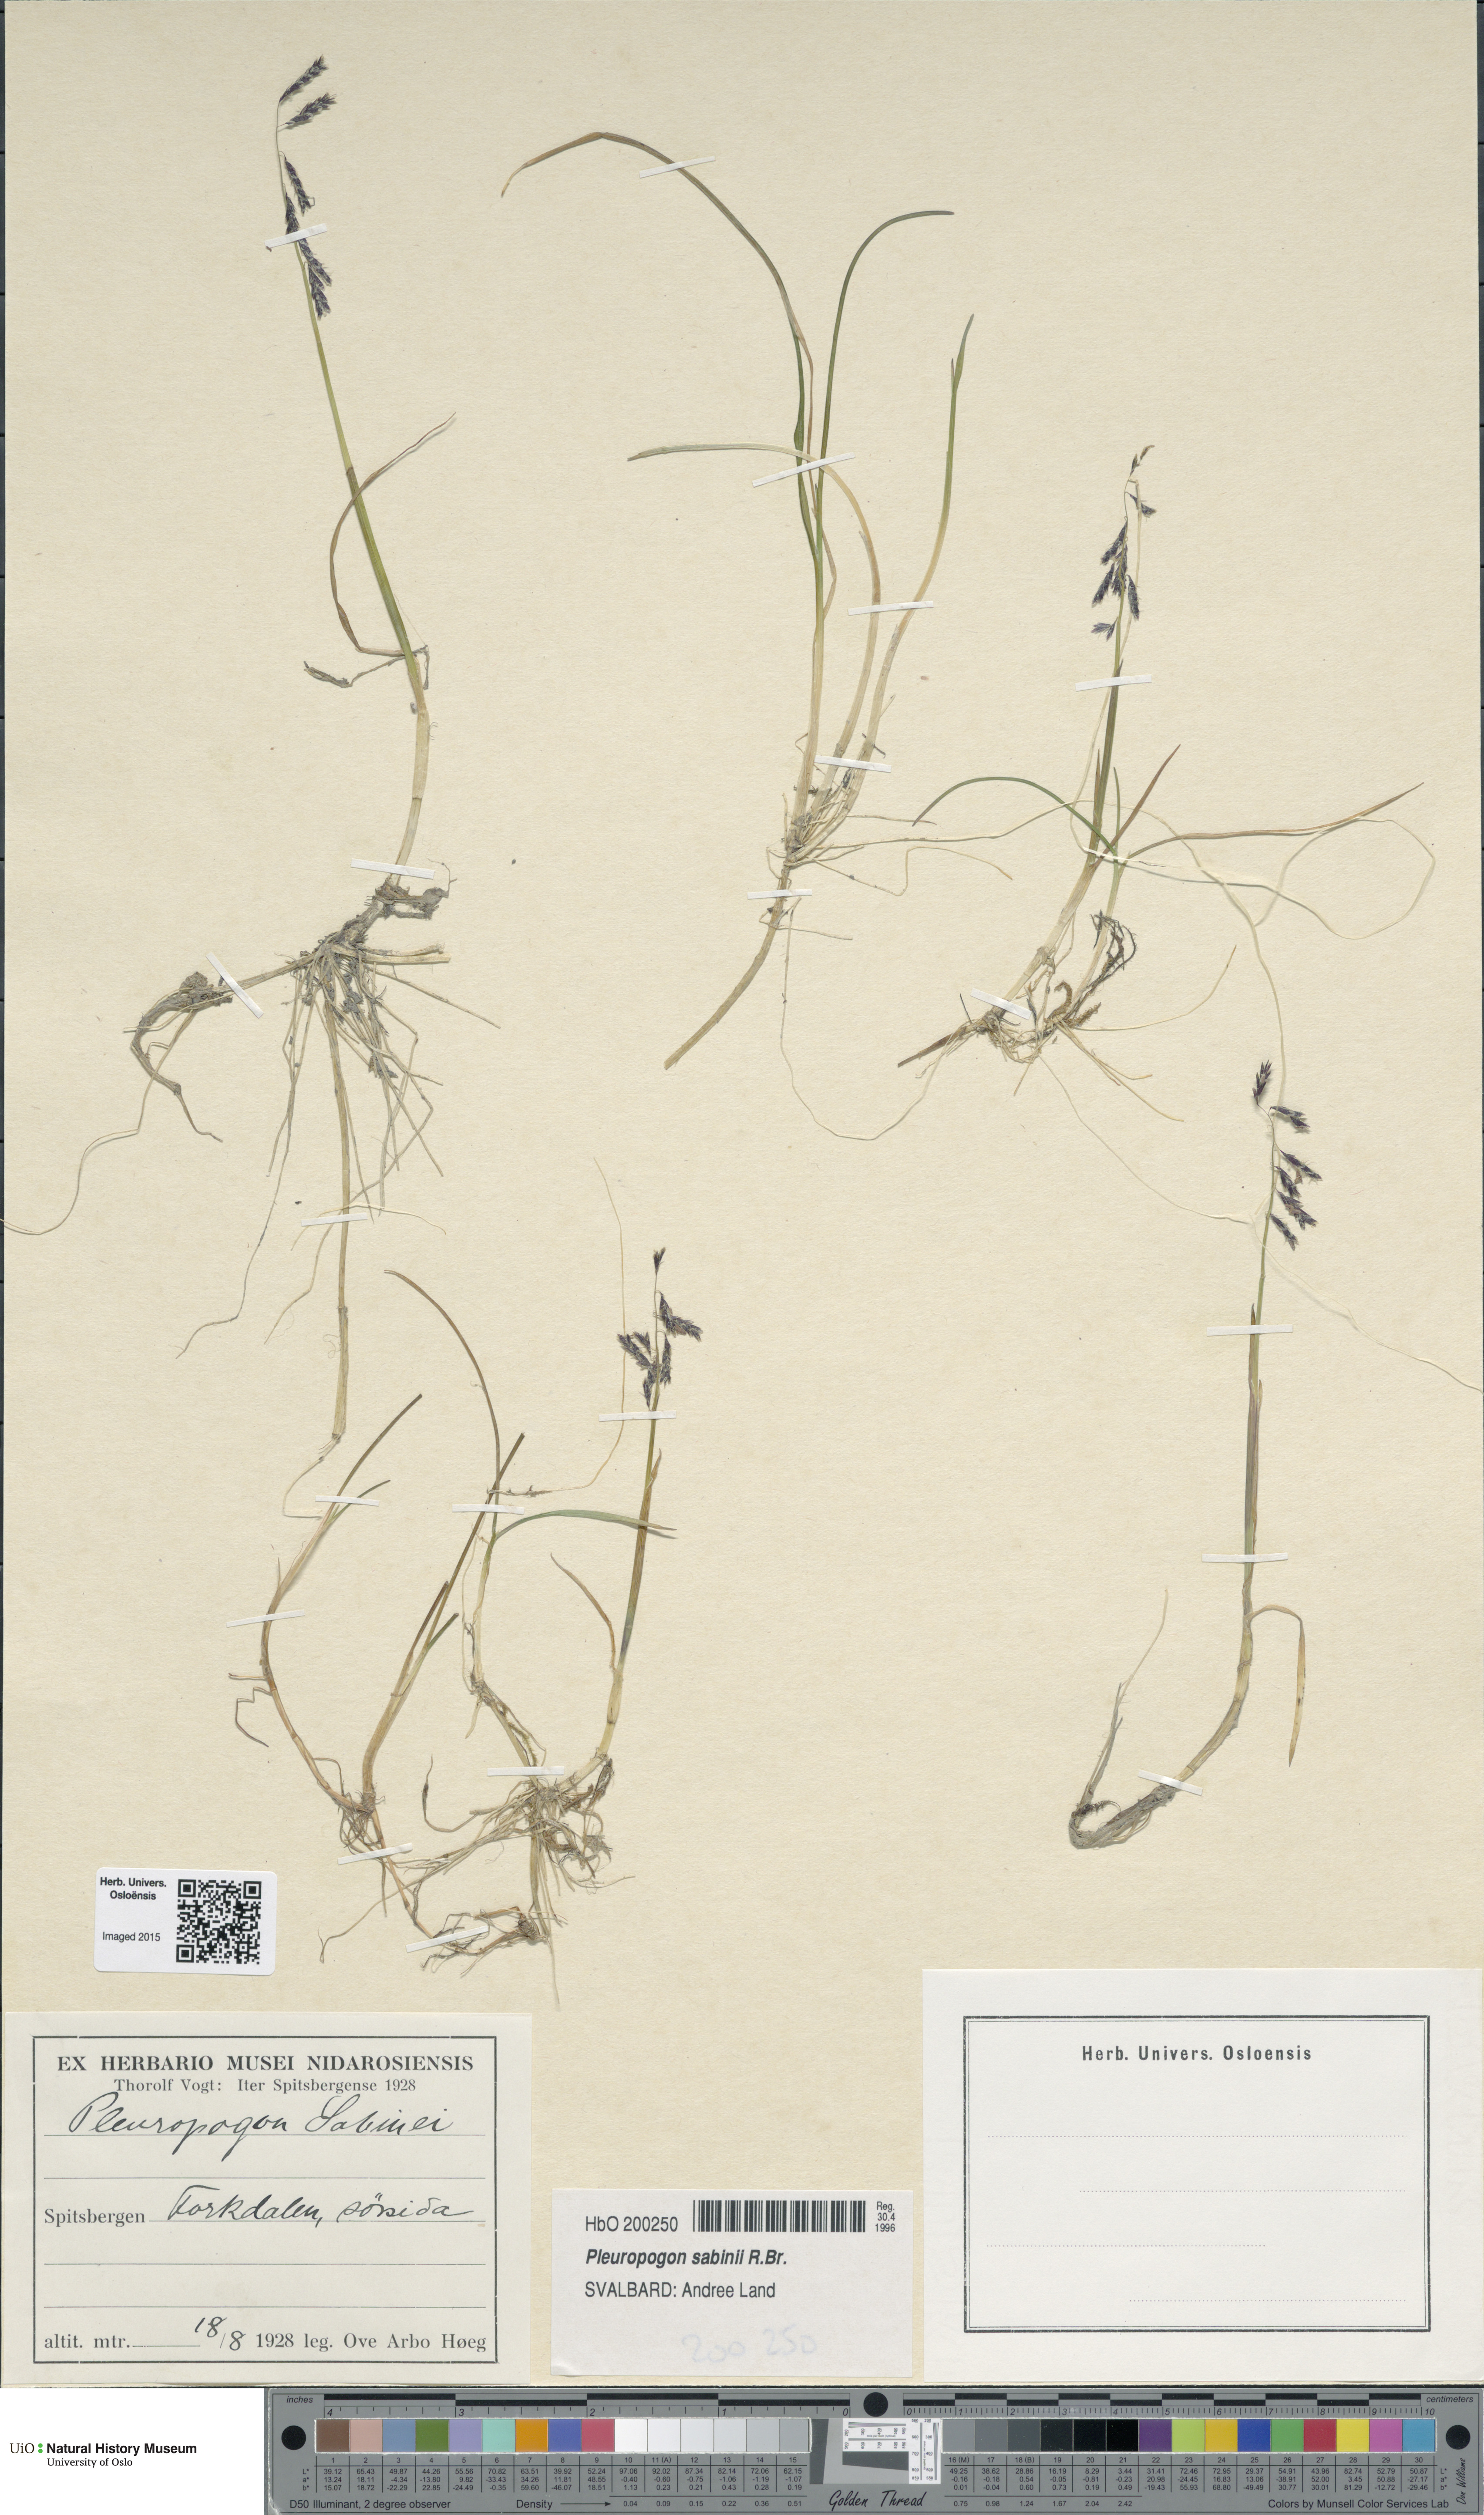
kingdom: Plantae
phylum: Tracheophyta
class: Liliopsida
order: Poales
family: Poaceae
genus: Pleuropogon
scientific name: Pleuropogon sabinei
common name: Sabine's false semaphoregrass
